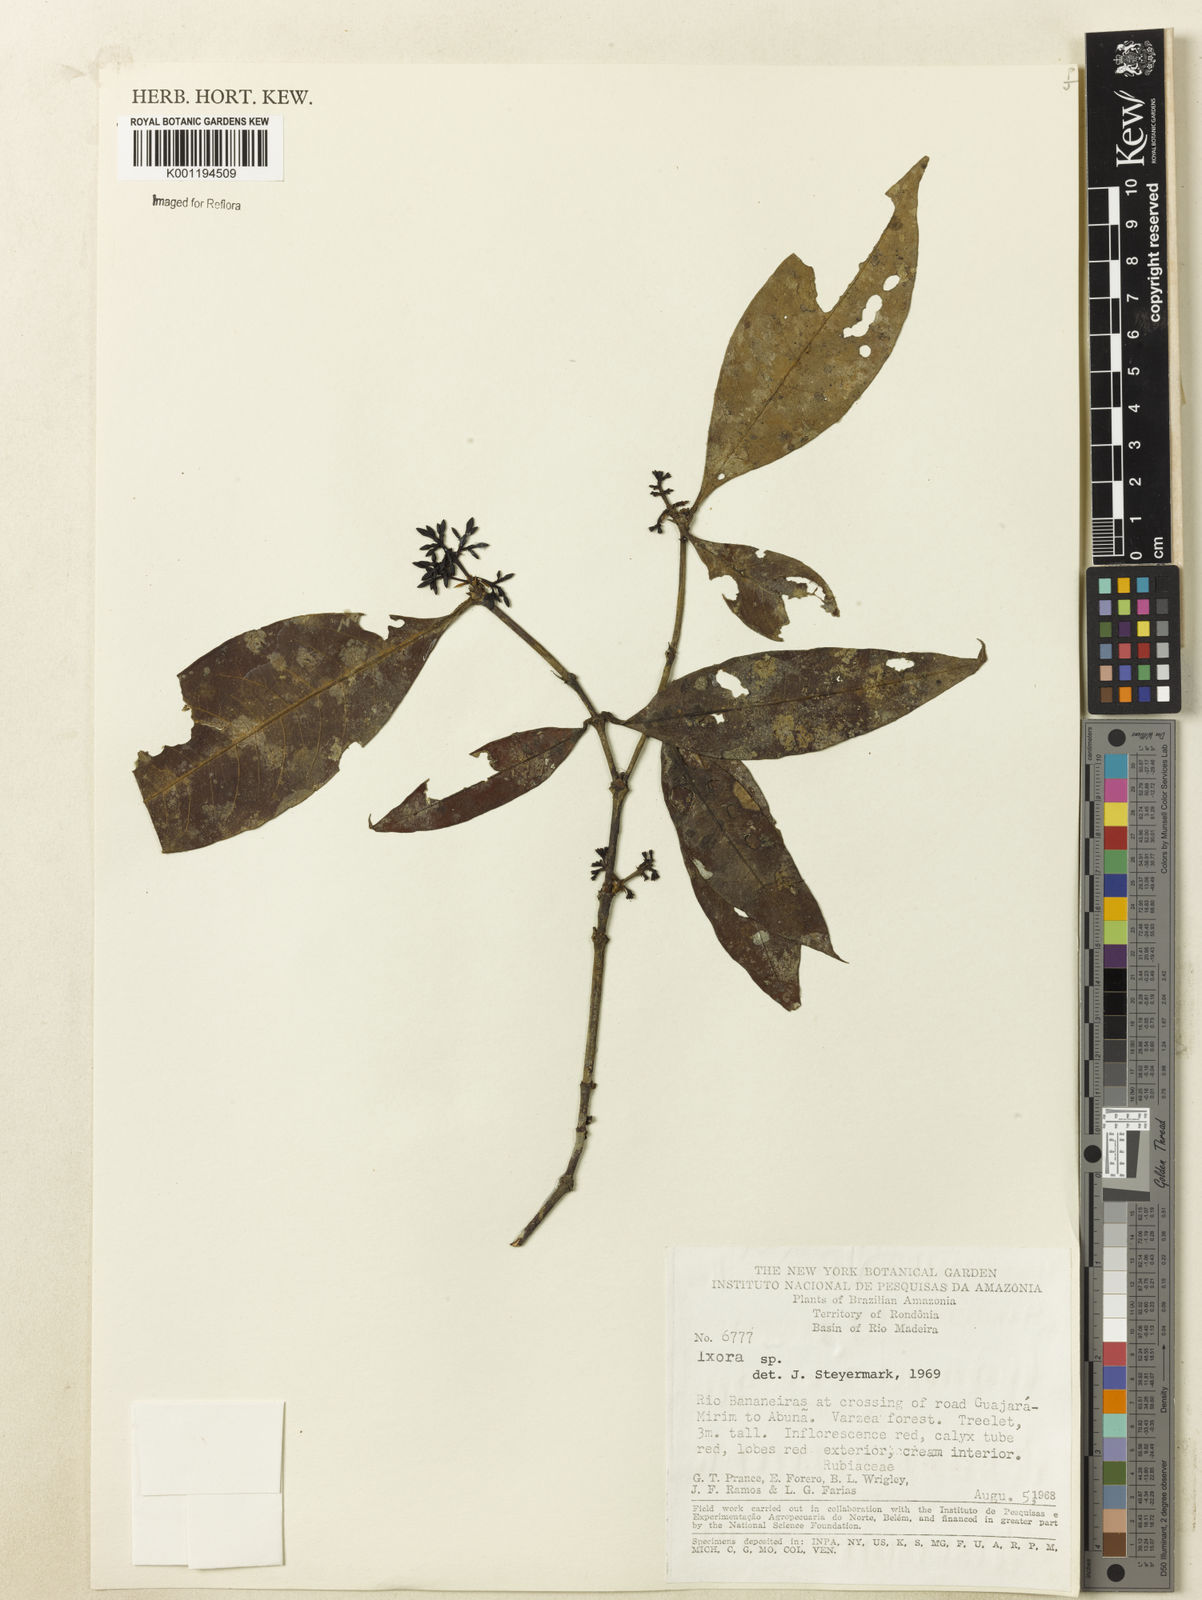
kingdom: Plantae
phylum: Tracheophyta
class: Magnoliopsida
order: Gentianales
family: Rubiaceae
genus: Ixora
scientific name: Ixora
